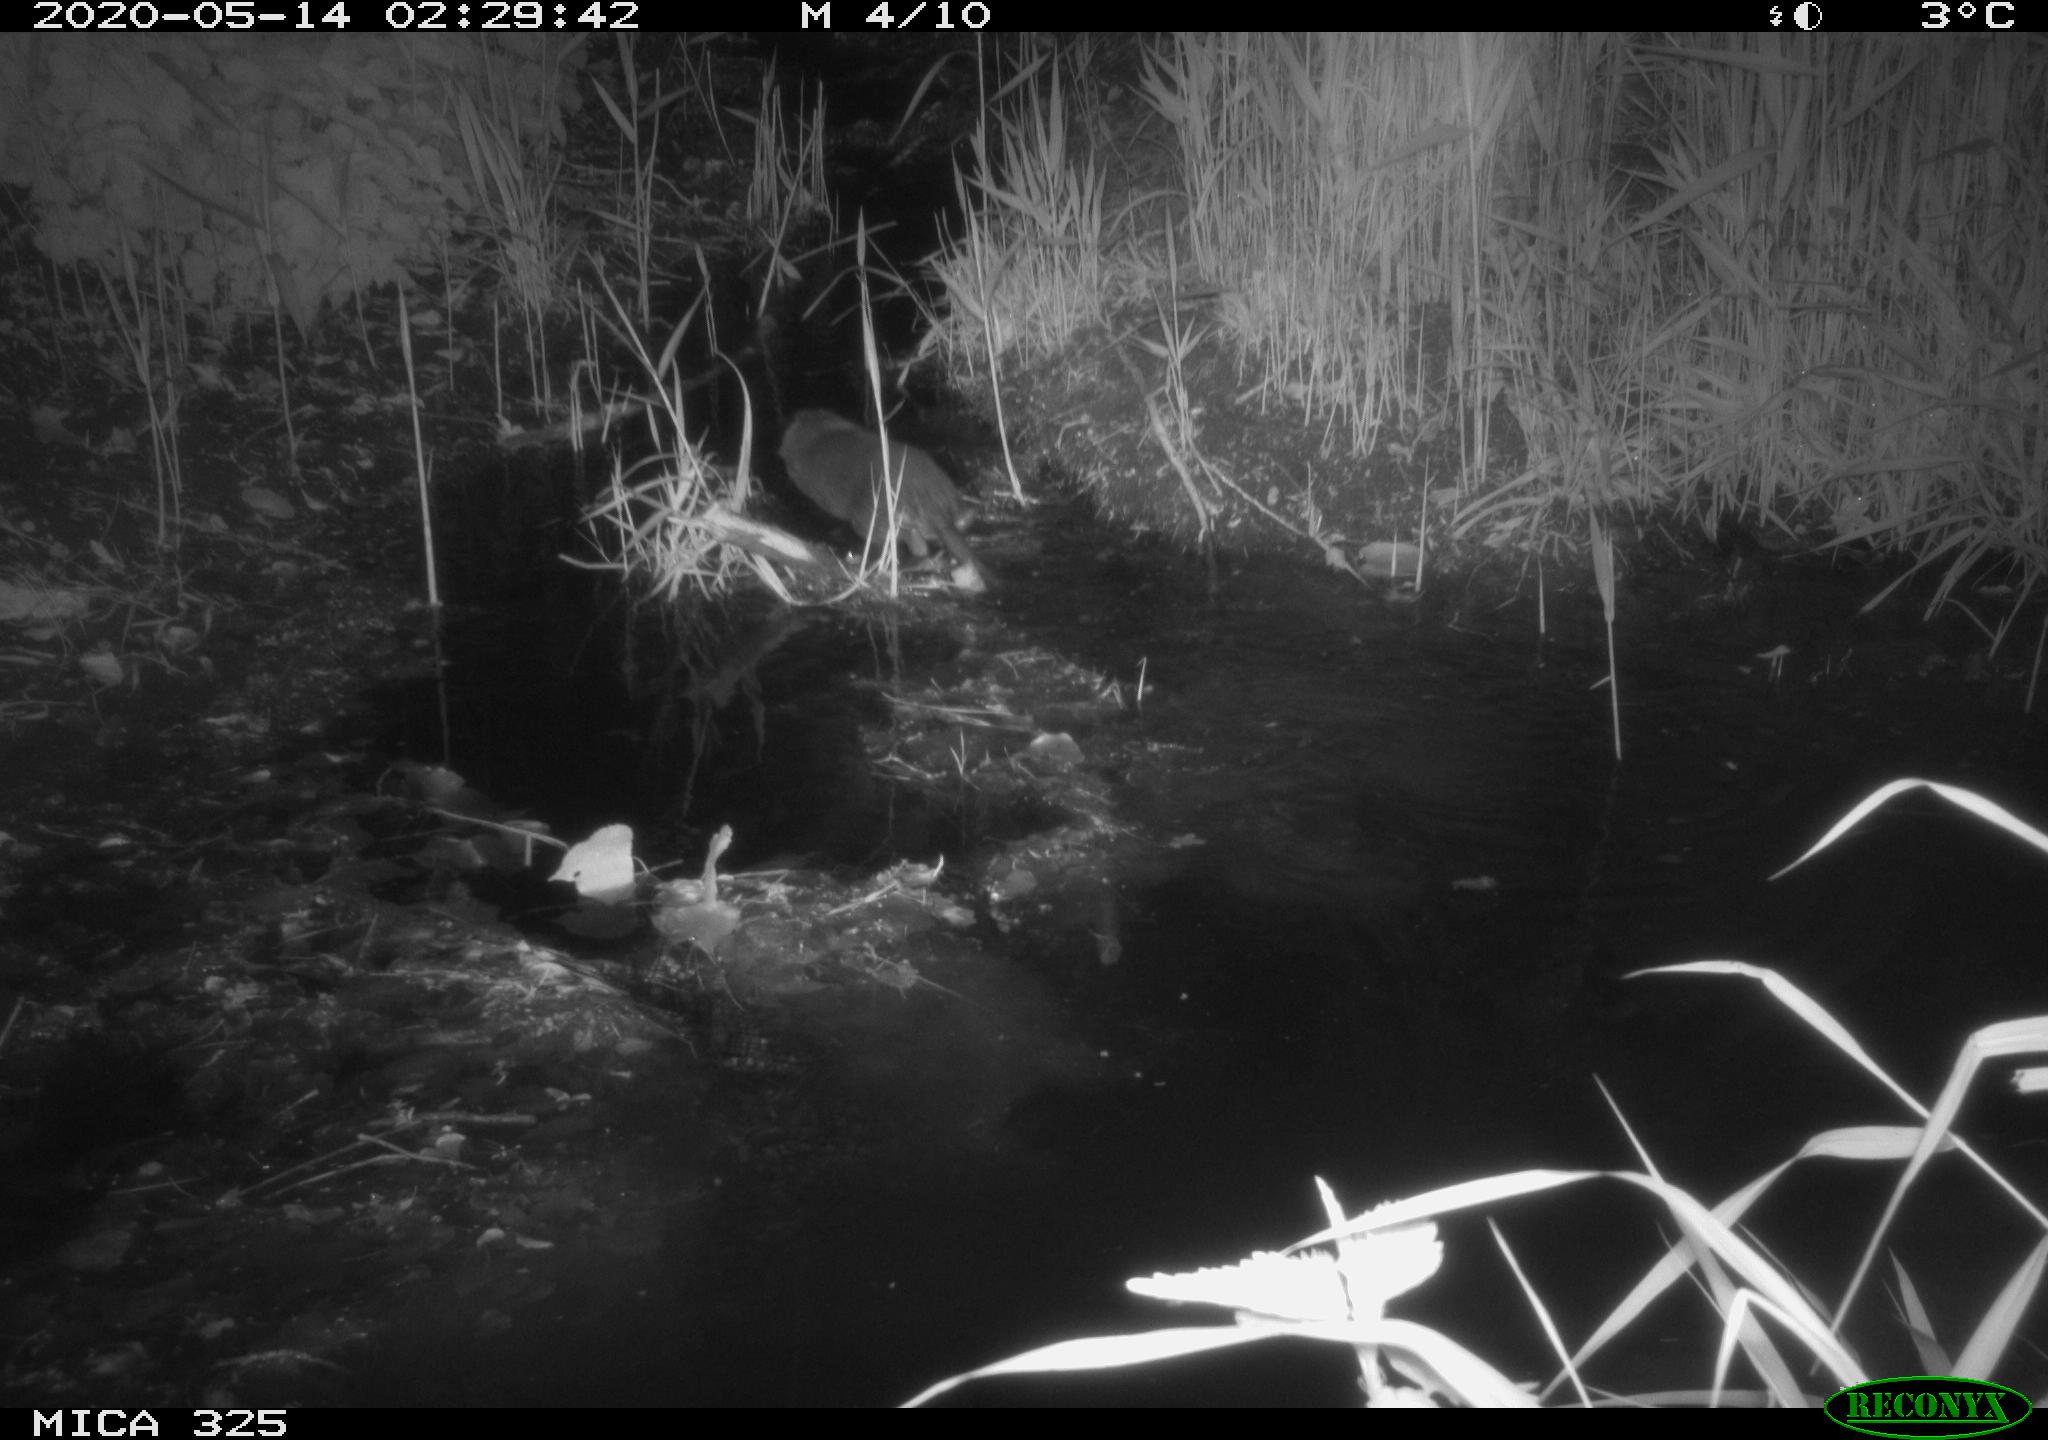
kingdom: Animalia
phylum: Chordata
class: Mammalia
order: Rodentia
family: Myocastoridae
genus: Myocastor
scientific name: Myocastor coypus
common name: Coypu
